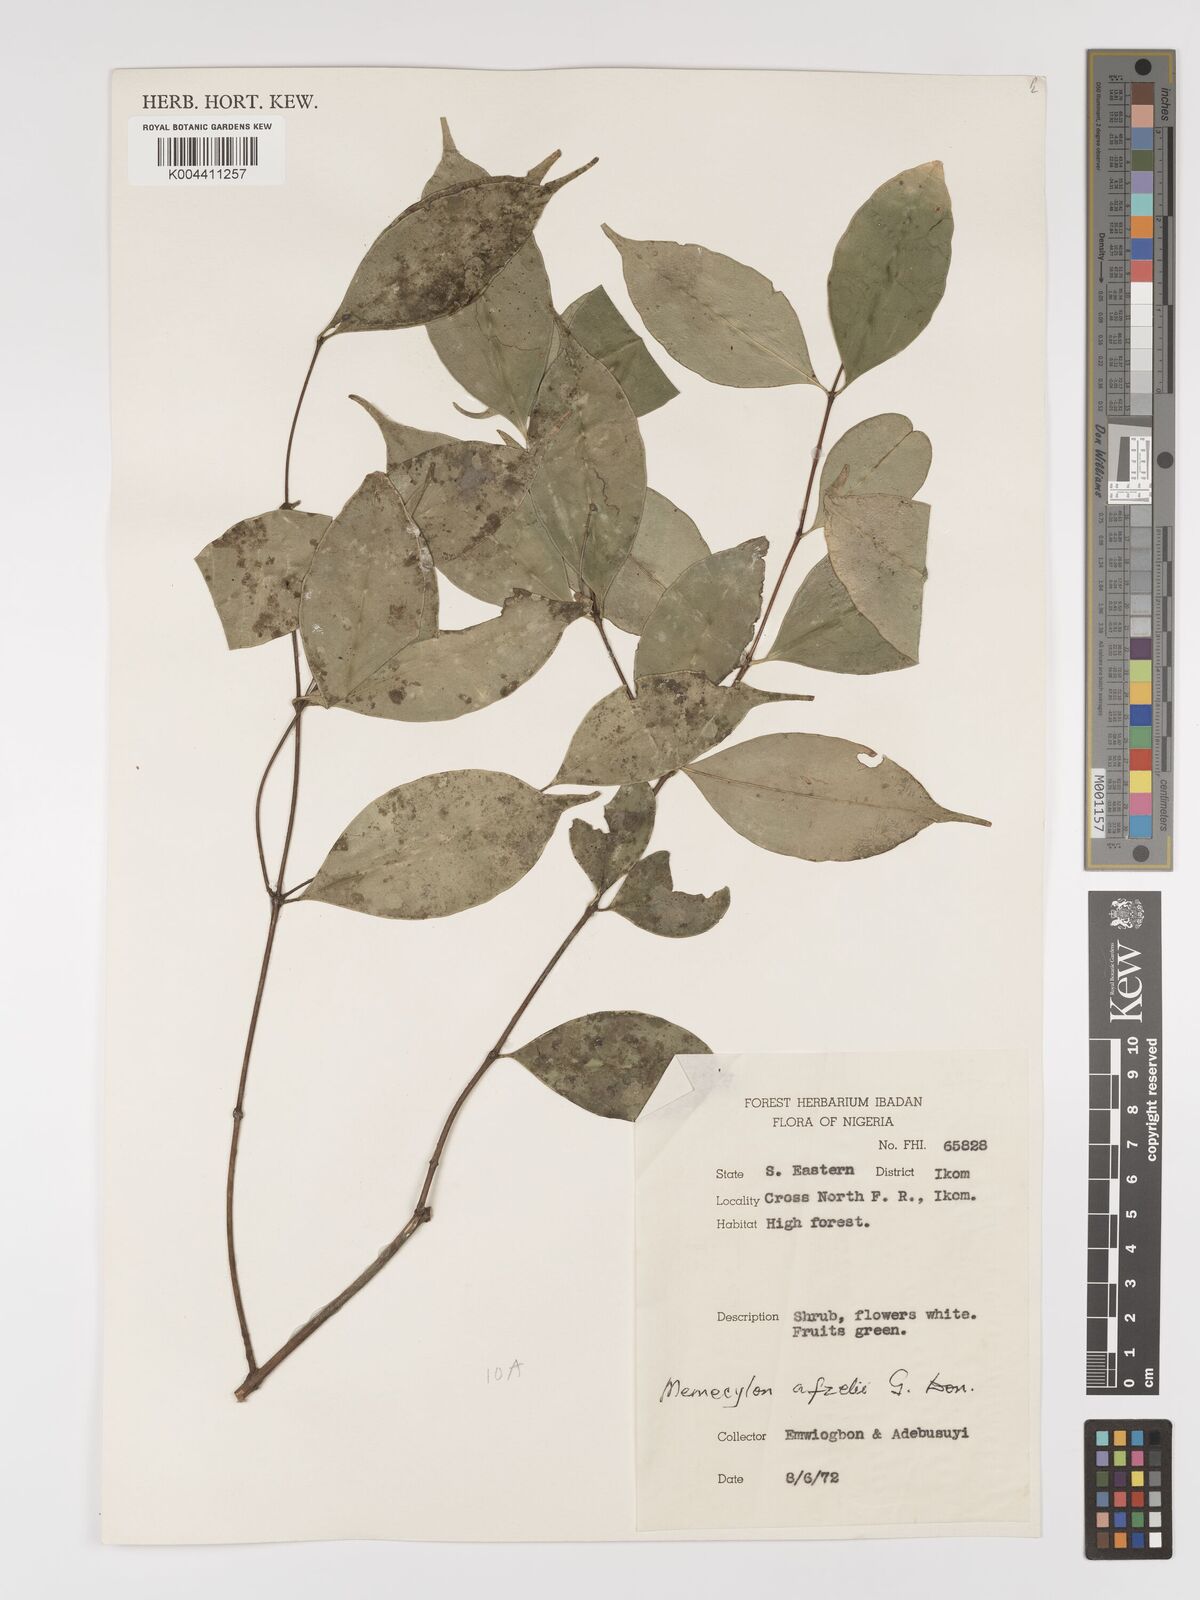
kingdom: Plantae
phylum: Tracheophyta
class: Magnoliopsida
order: Myrtales
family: Melastomataceae
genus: Memecylon
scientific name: Memecylon afzelii
